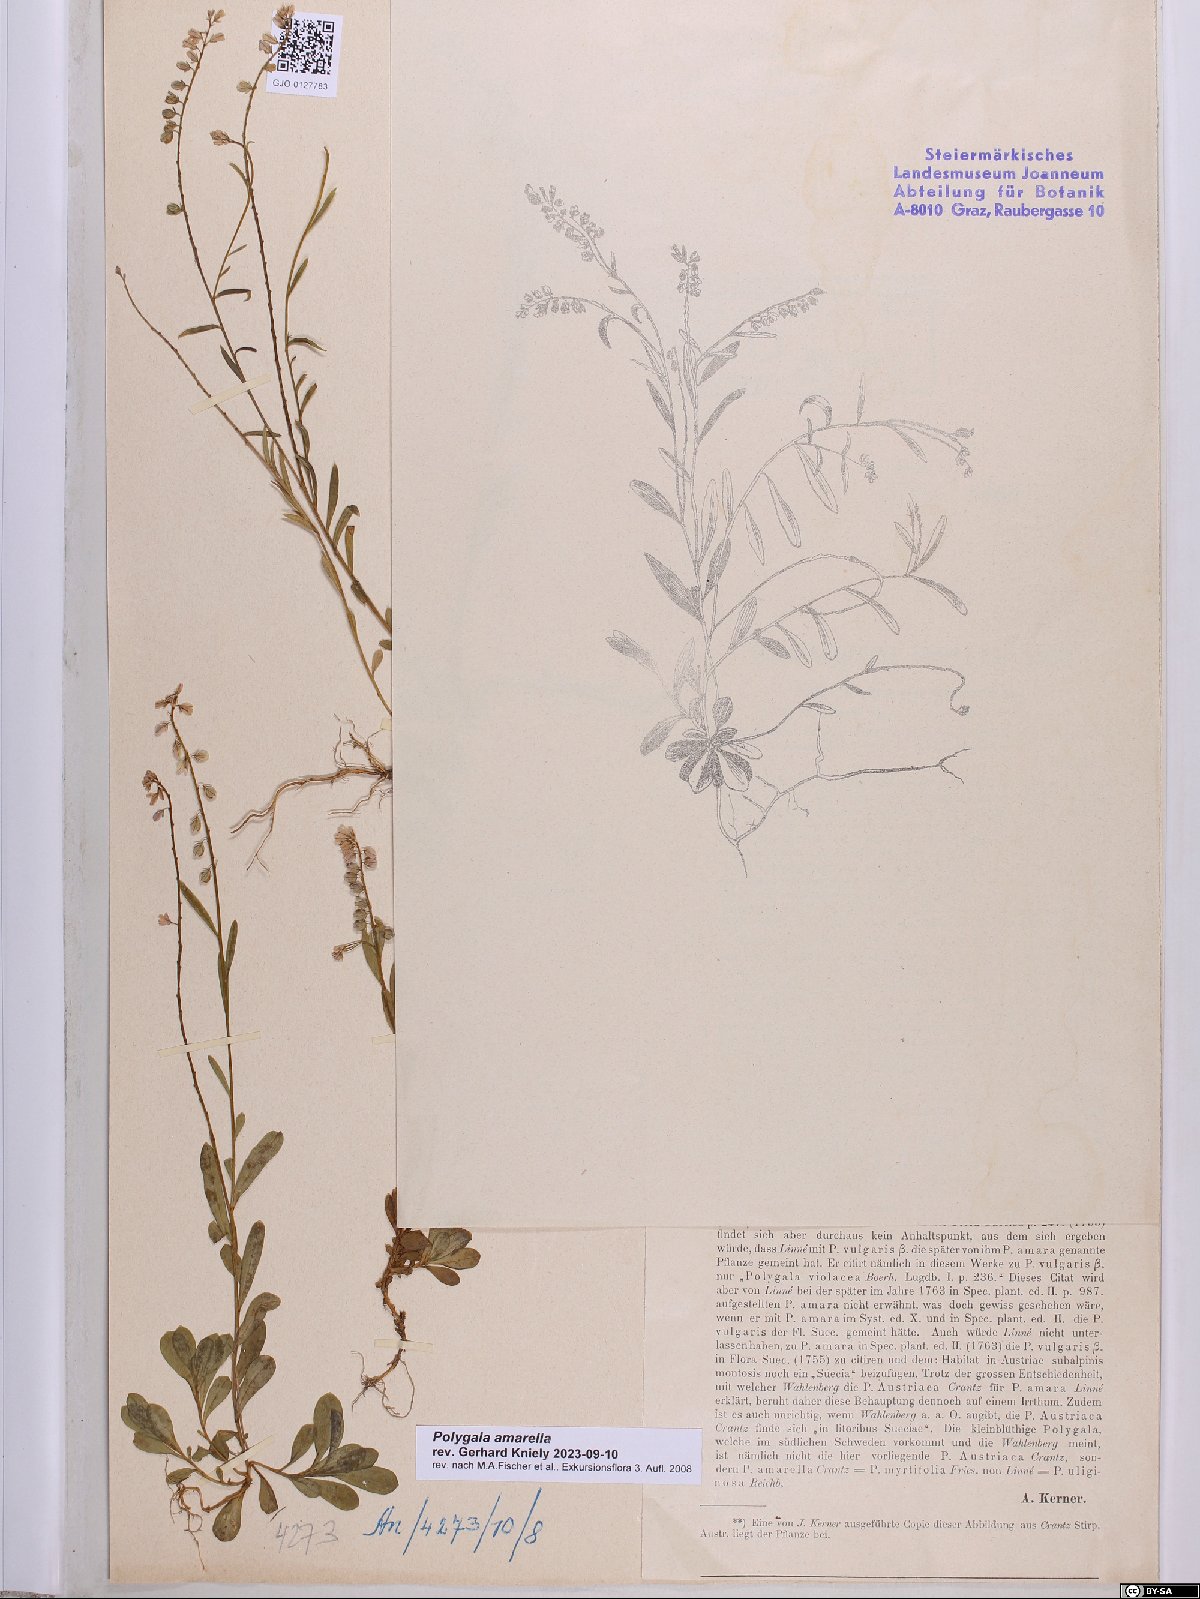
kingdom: Plantae
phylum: Tracheophyta
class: Magnoliopsida
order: Fabales
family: Polygalaceae
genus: Polygala
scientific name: Polygala amarella
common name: Dwarf milkwort
